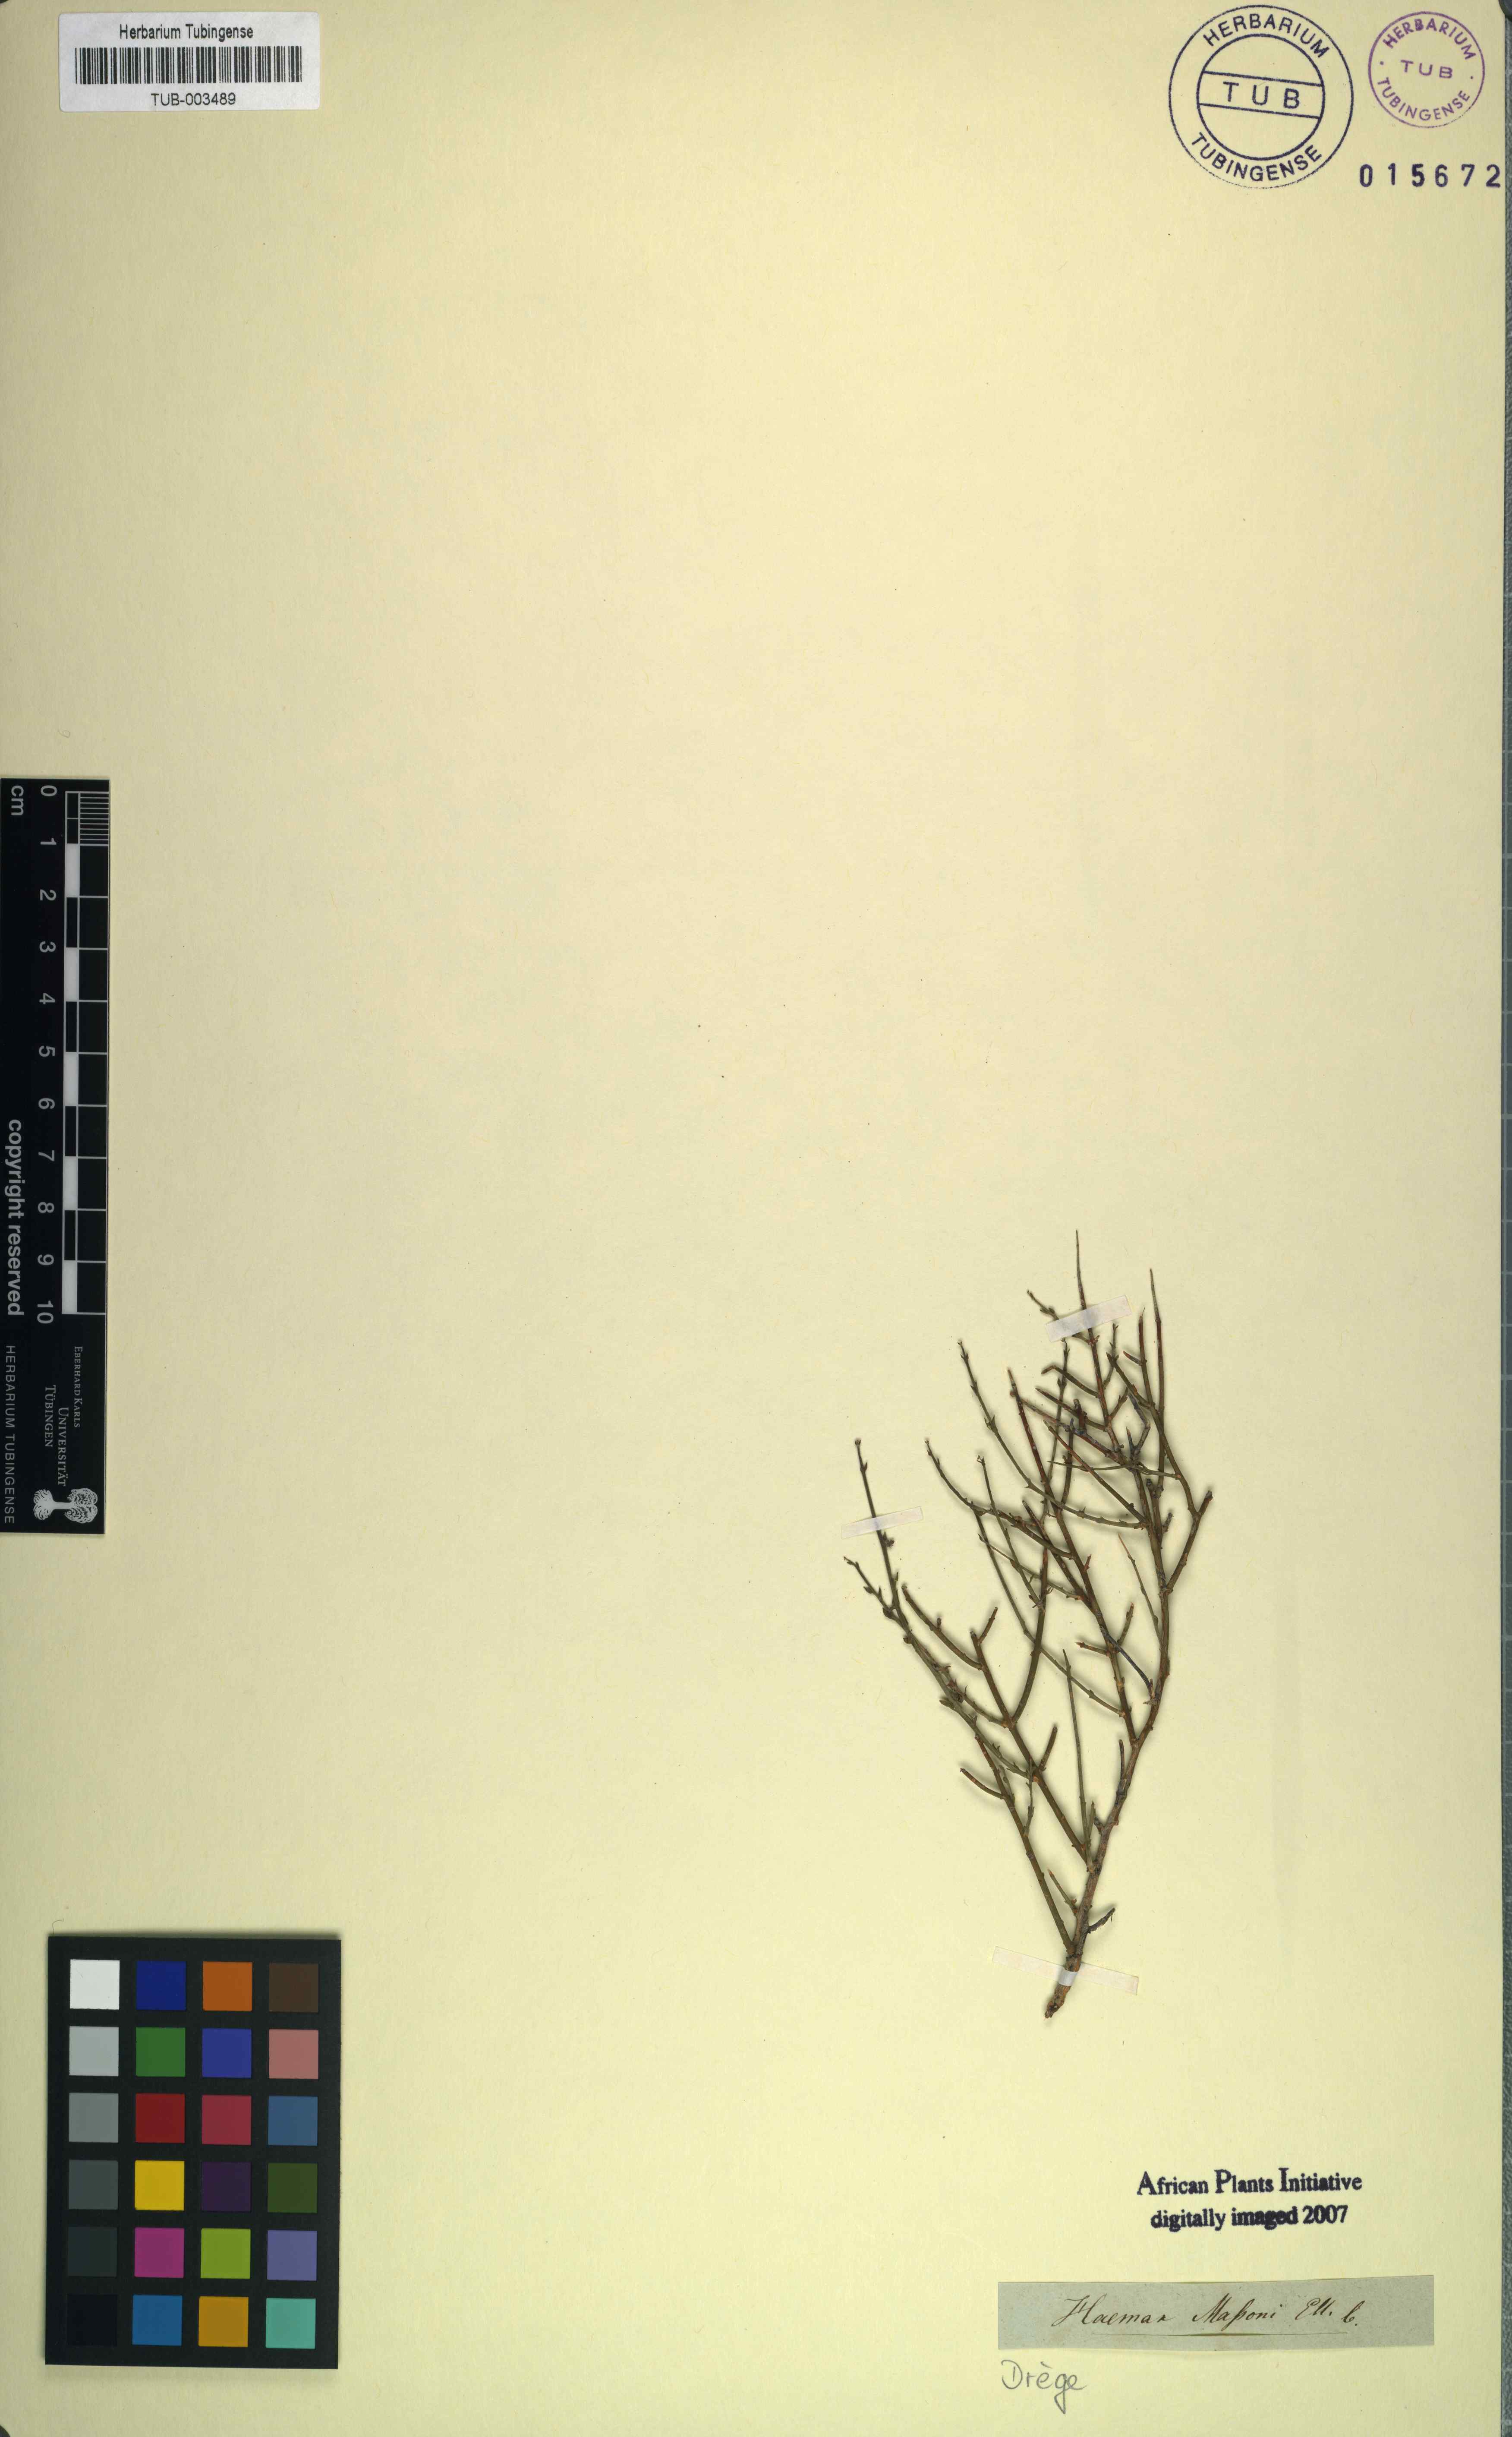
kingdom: Plantae
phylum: Tracheophyta
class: Magnoliopsida
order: Gentianales
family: Apocynaceae
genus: Astephanus
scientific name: Astephanus
